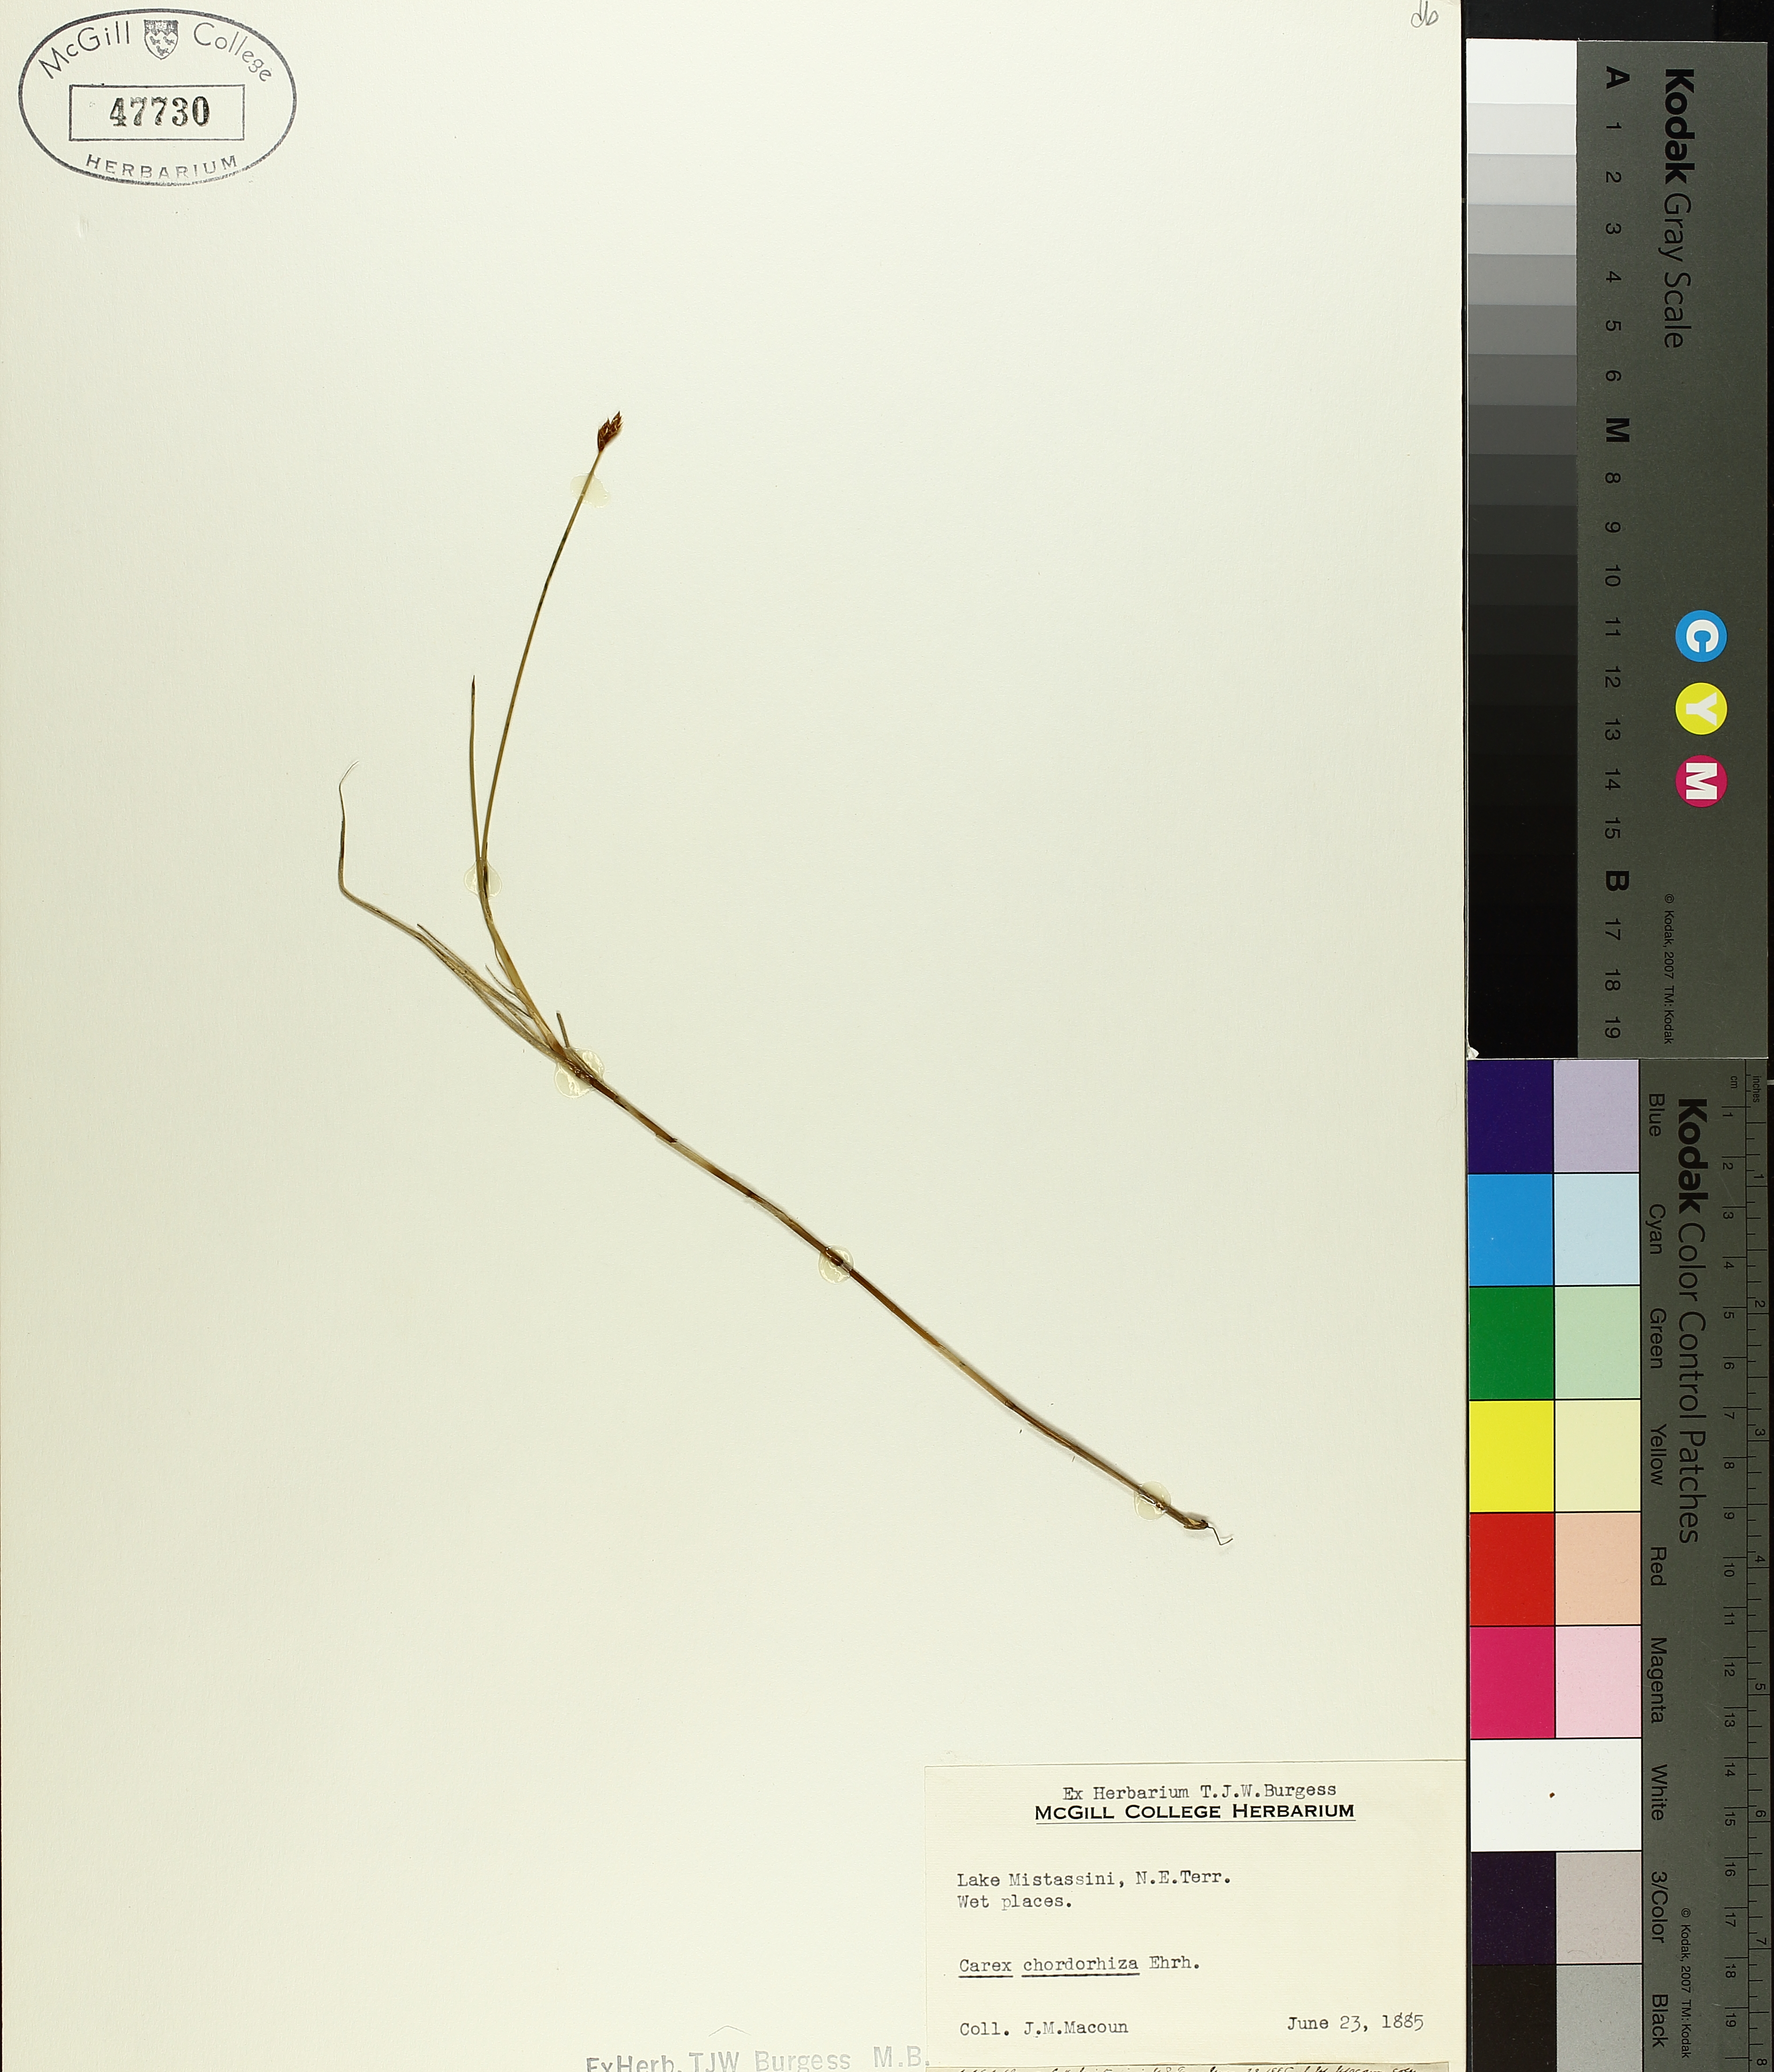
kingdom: Plantae
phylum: Tracheophyta
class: Liliopsida
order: Poales
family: Cyperaceae
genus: Carex
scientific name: Carex
